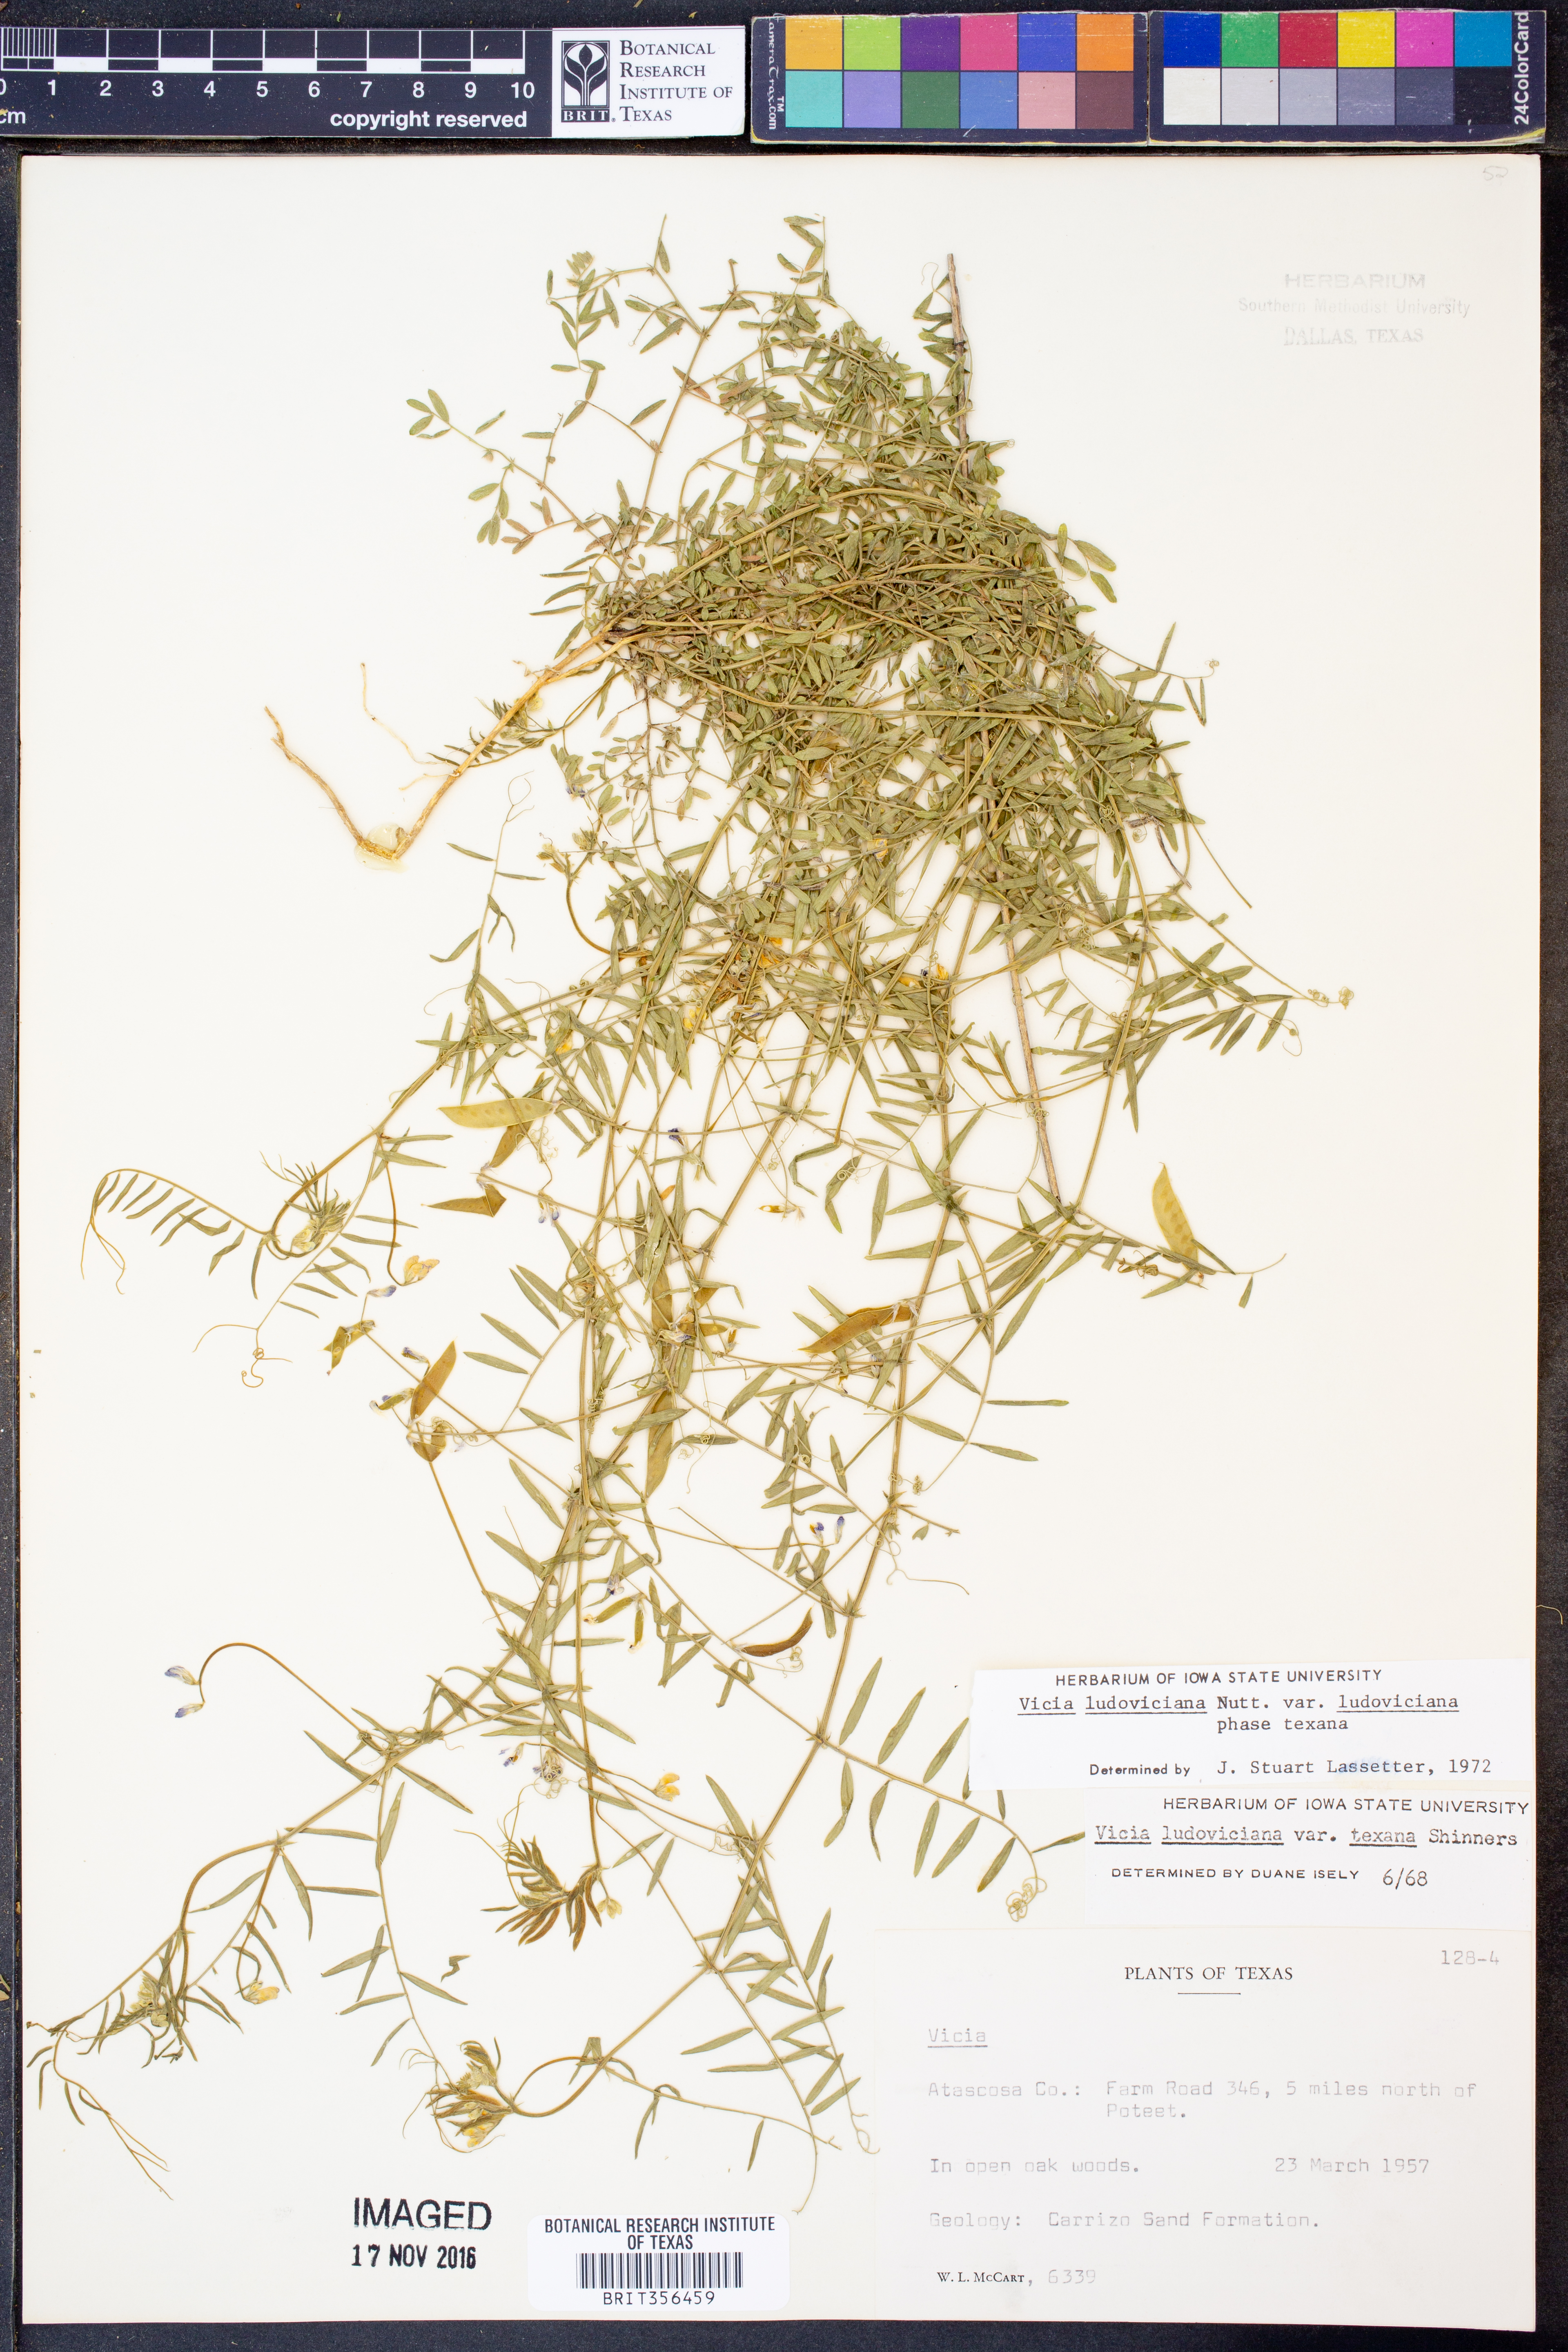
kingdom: Plantae
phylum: Tracheophyta
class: Magnoliopsida
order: Fabales
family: Fabaceae
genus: Vicia
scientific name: Vicia ludoviciana
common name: Louisiana vetch
